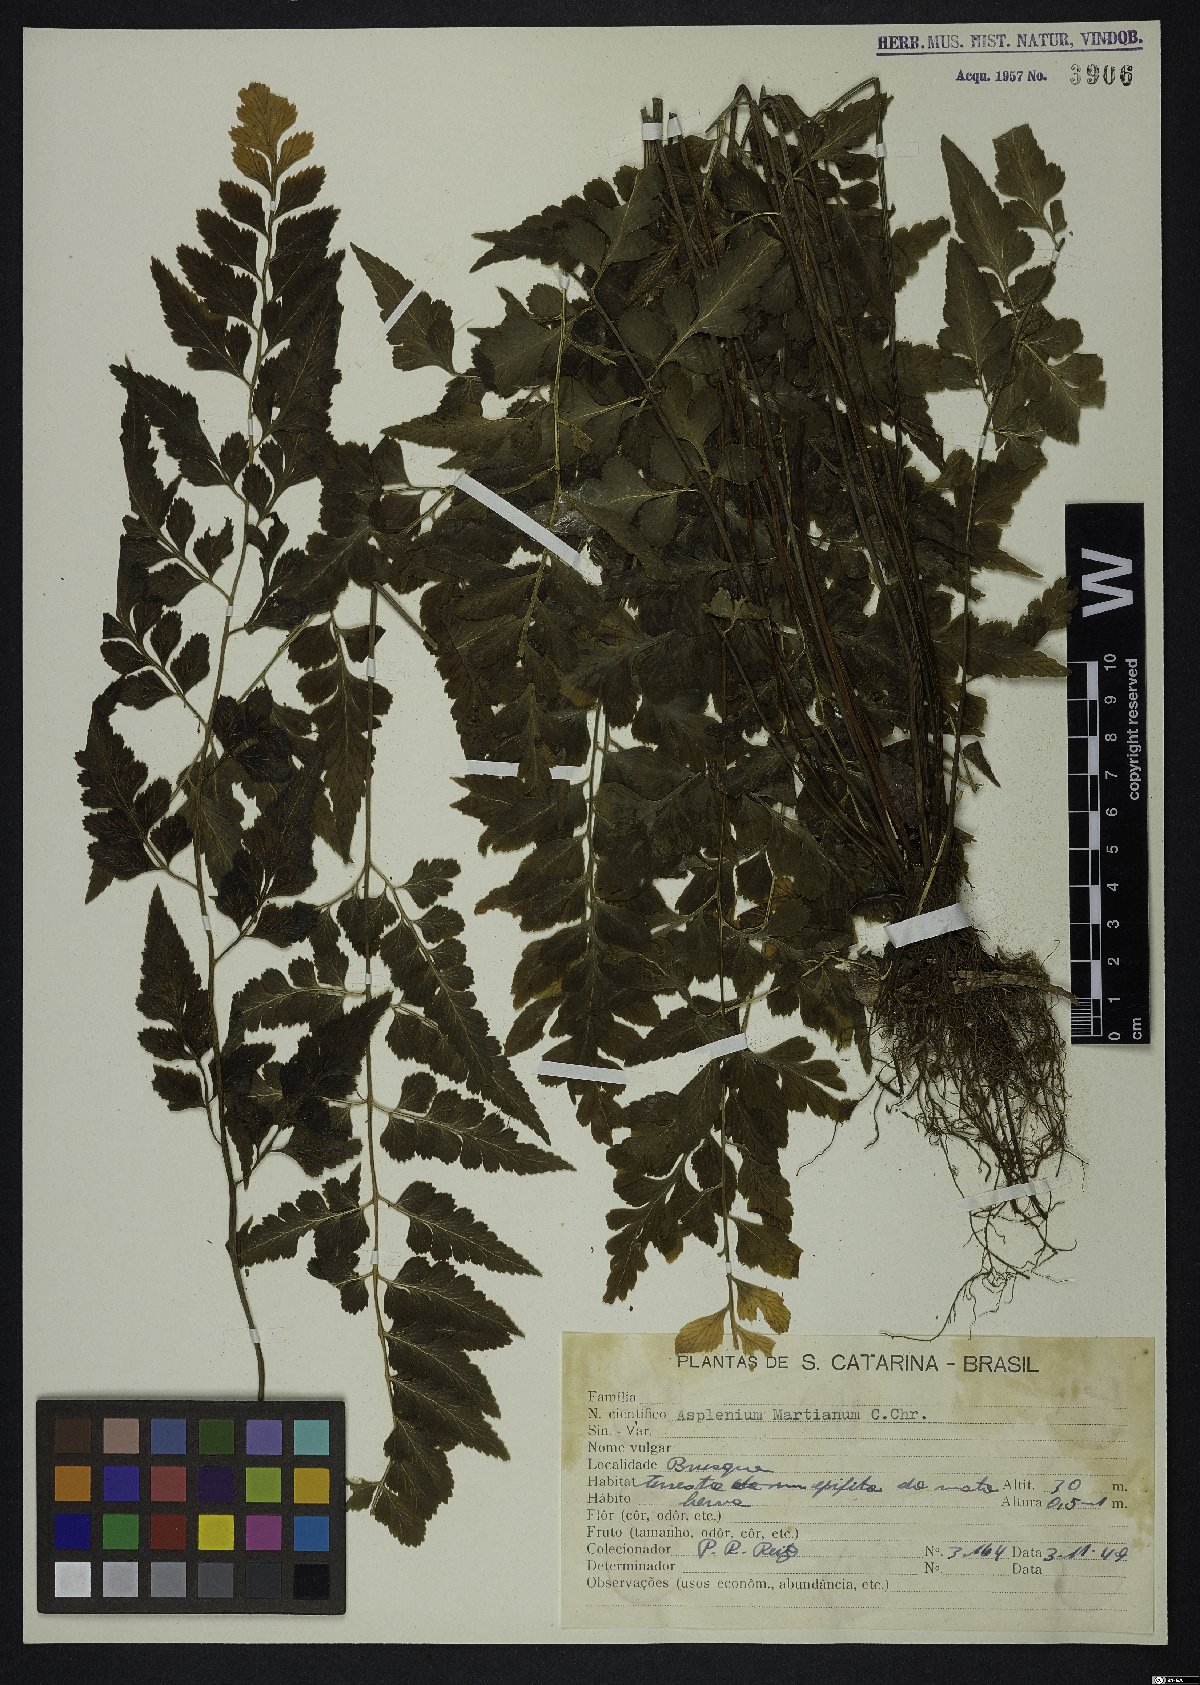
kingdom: Plantae
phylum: Tracheophyta
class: Polypodiopsida
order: Polypodiales
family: Aspleniaceae
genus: Asplenium
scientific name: Asplenium martianum
